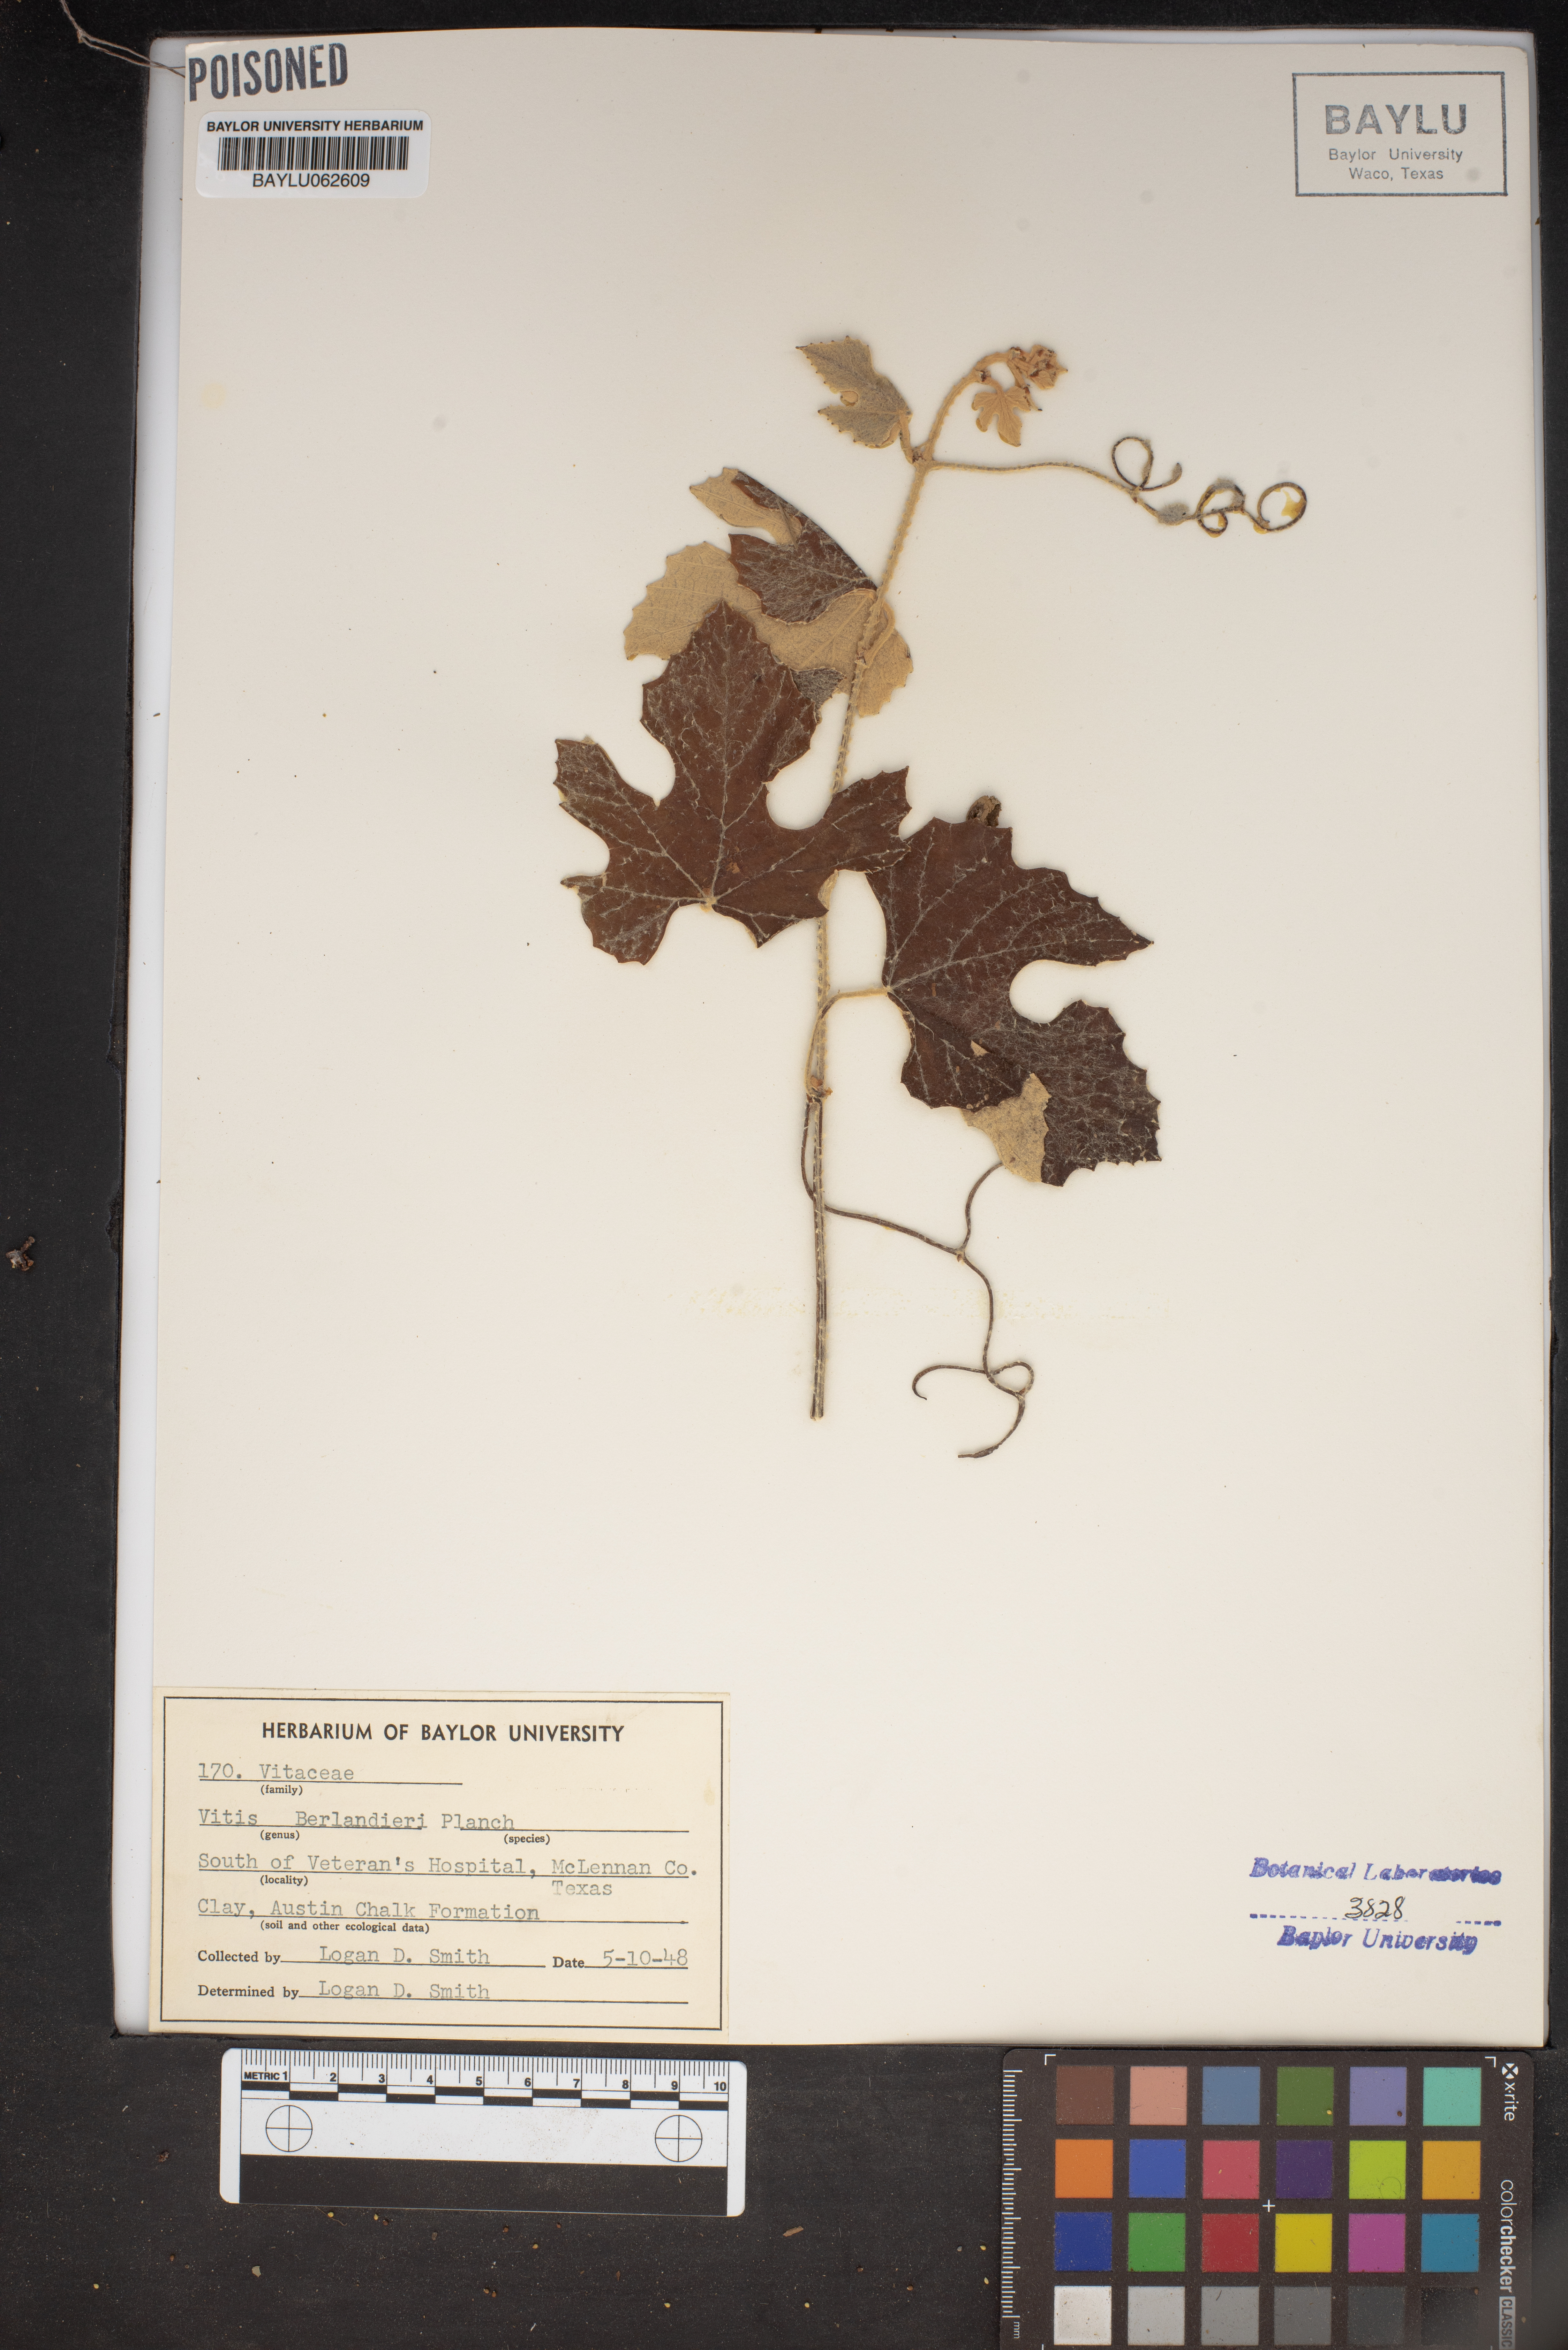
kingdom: Plantae
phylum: Tracheophyta
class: Magnoliopsida
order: Vitales
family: Vitaceae
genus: Vitis
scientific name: Vitis cinerea
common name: Ashy grape
